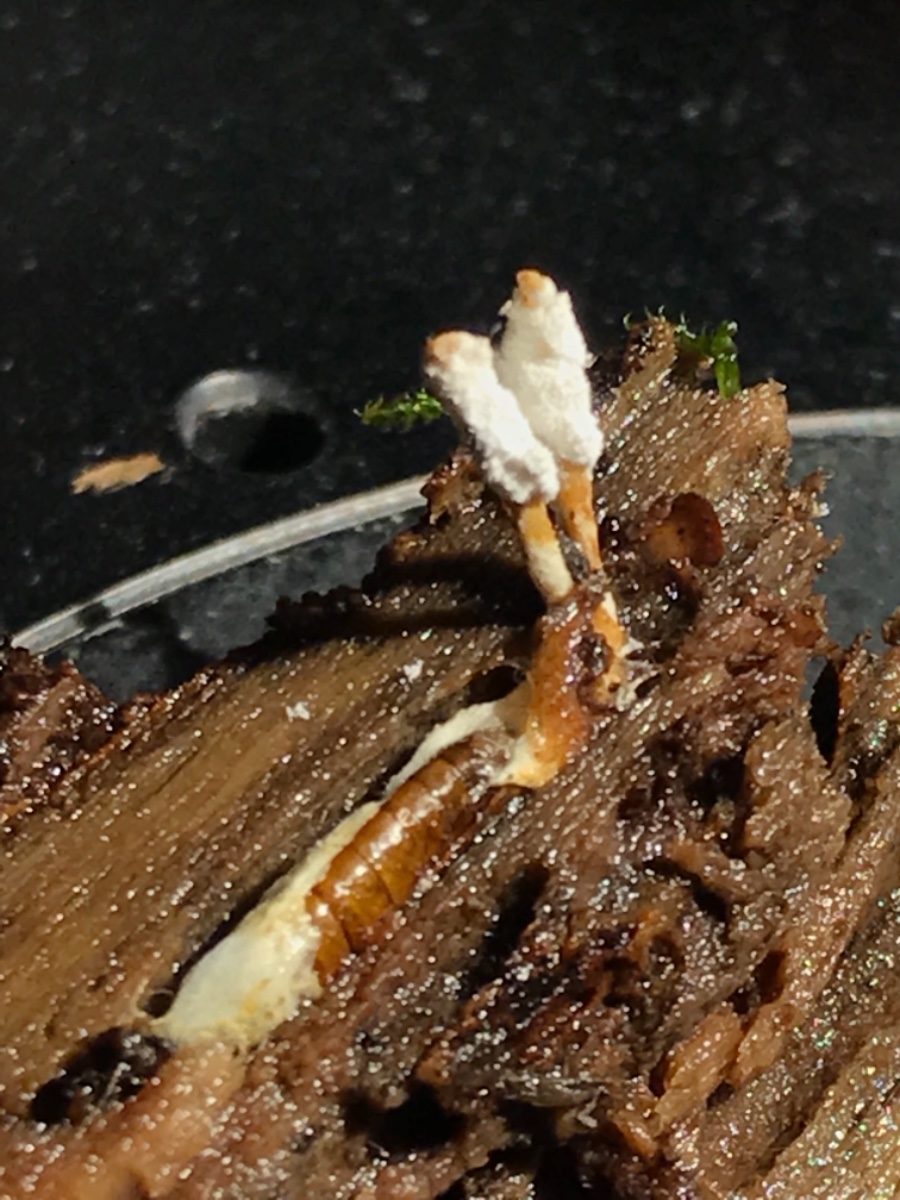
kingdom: Fungi
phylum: Ascomycota
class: Sordariomycetes
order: Hypocreales
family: Cordycipitaceae
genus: Cordyceps
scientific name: Cordyceps farinosa
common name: melet snyltekølle
